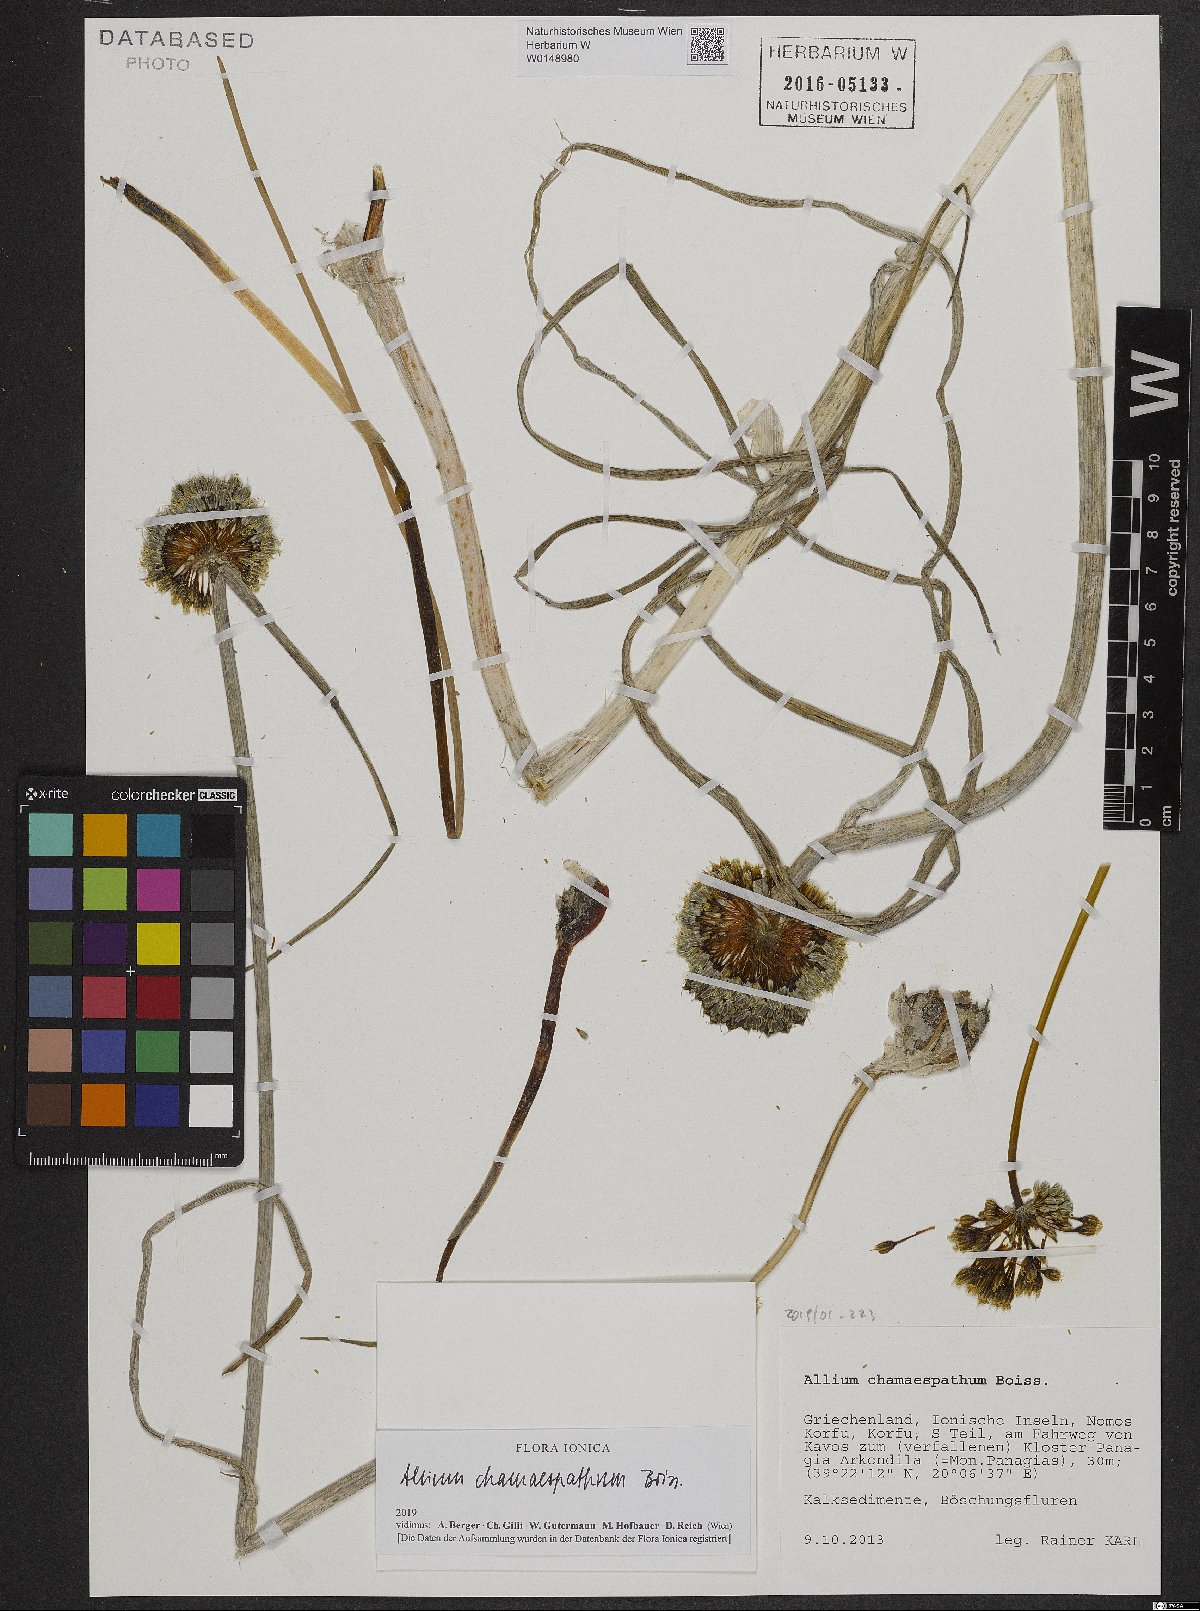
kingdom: Plantae
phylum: Tracheophyta
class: Liliopsida
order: Asparagales
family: Amaryllidaceae
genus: Allium
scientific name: Allium chamaespathum
